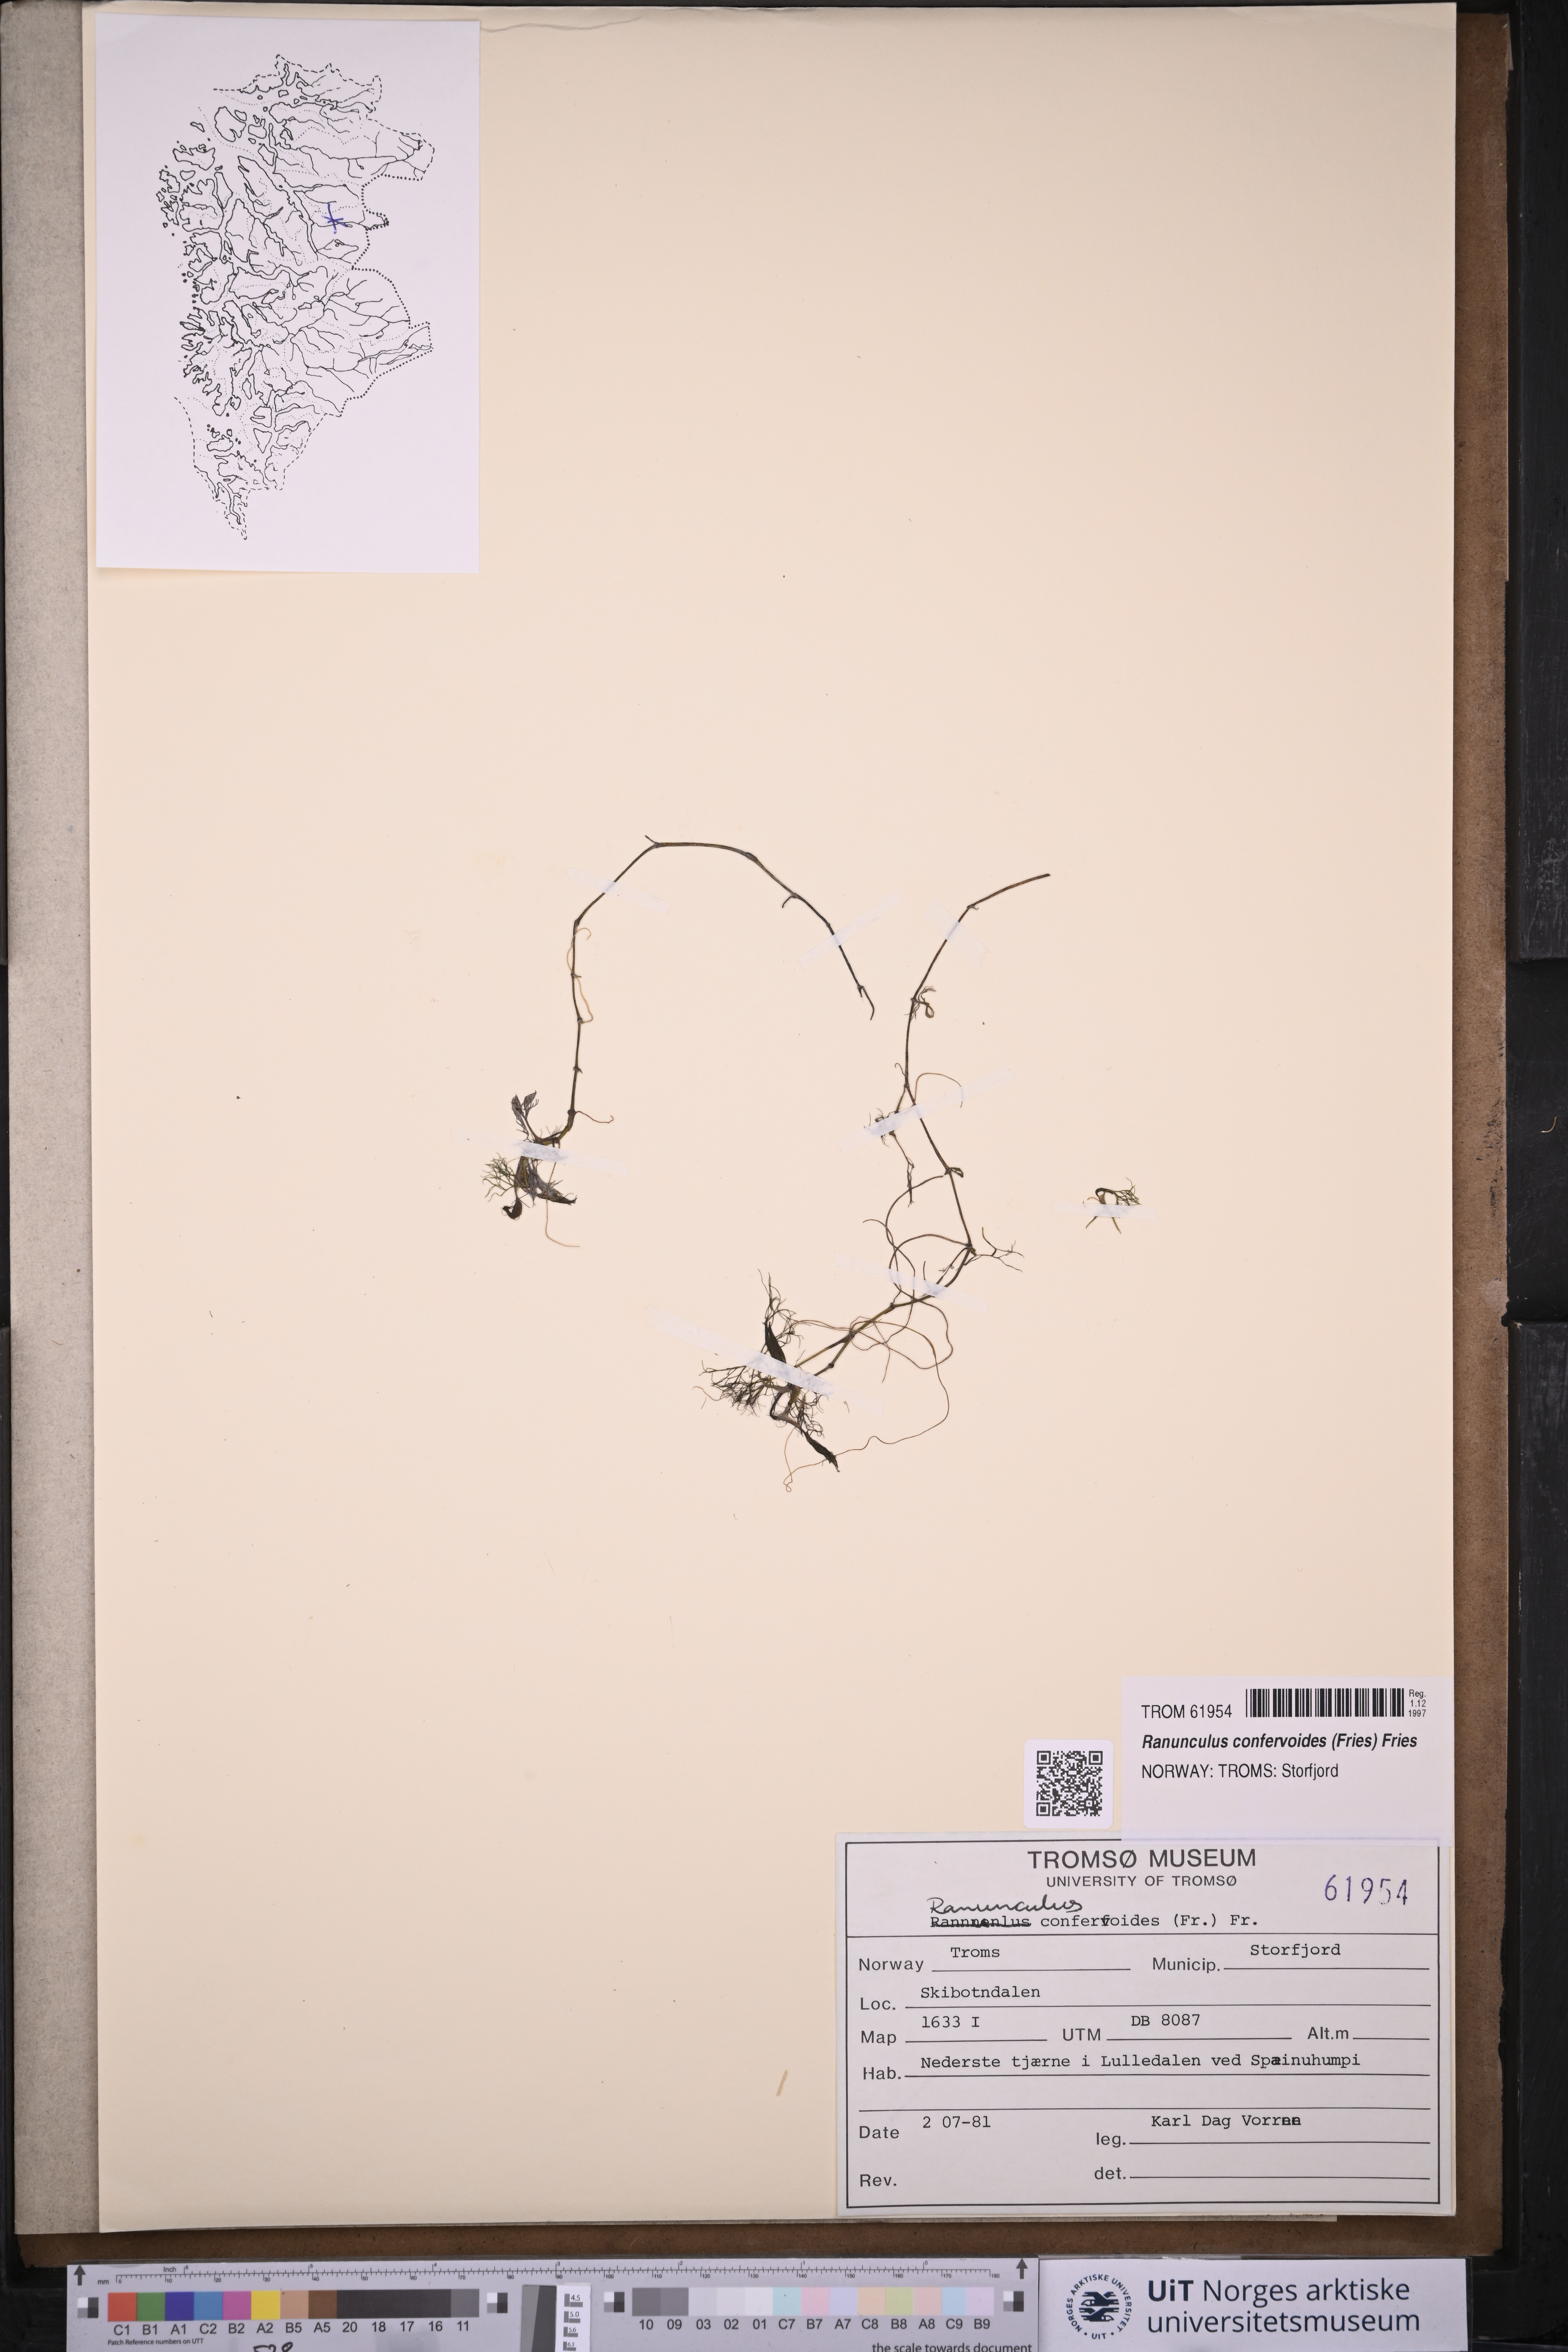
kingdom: Plantae
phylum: Tracheophyta
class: Magnoliopsida
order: Ranunculales
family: Ranunculaceae
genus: Ranunculus
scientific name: Ranunculus confervoides
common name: Delicate buttercup
